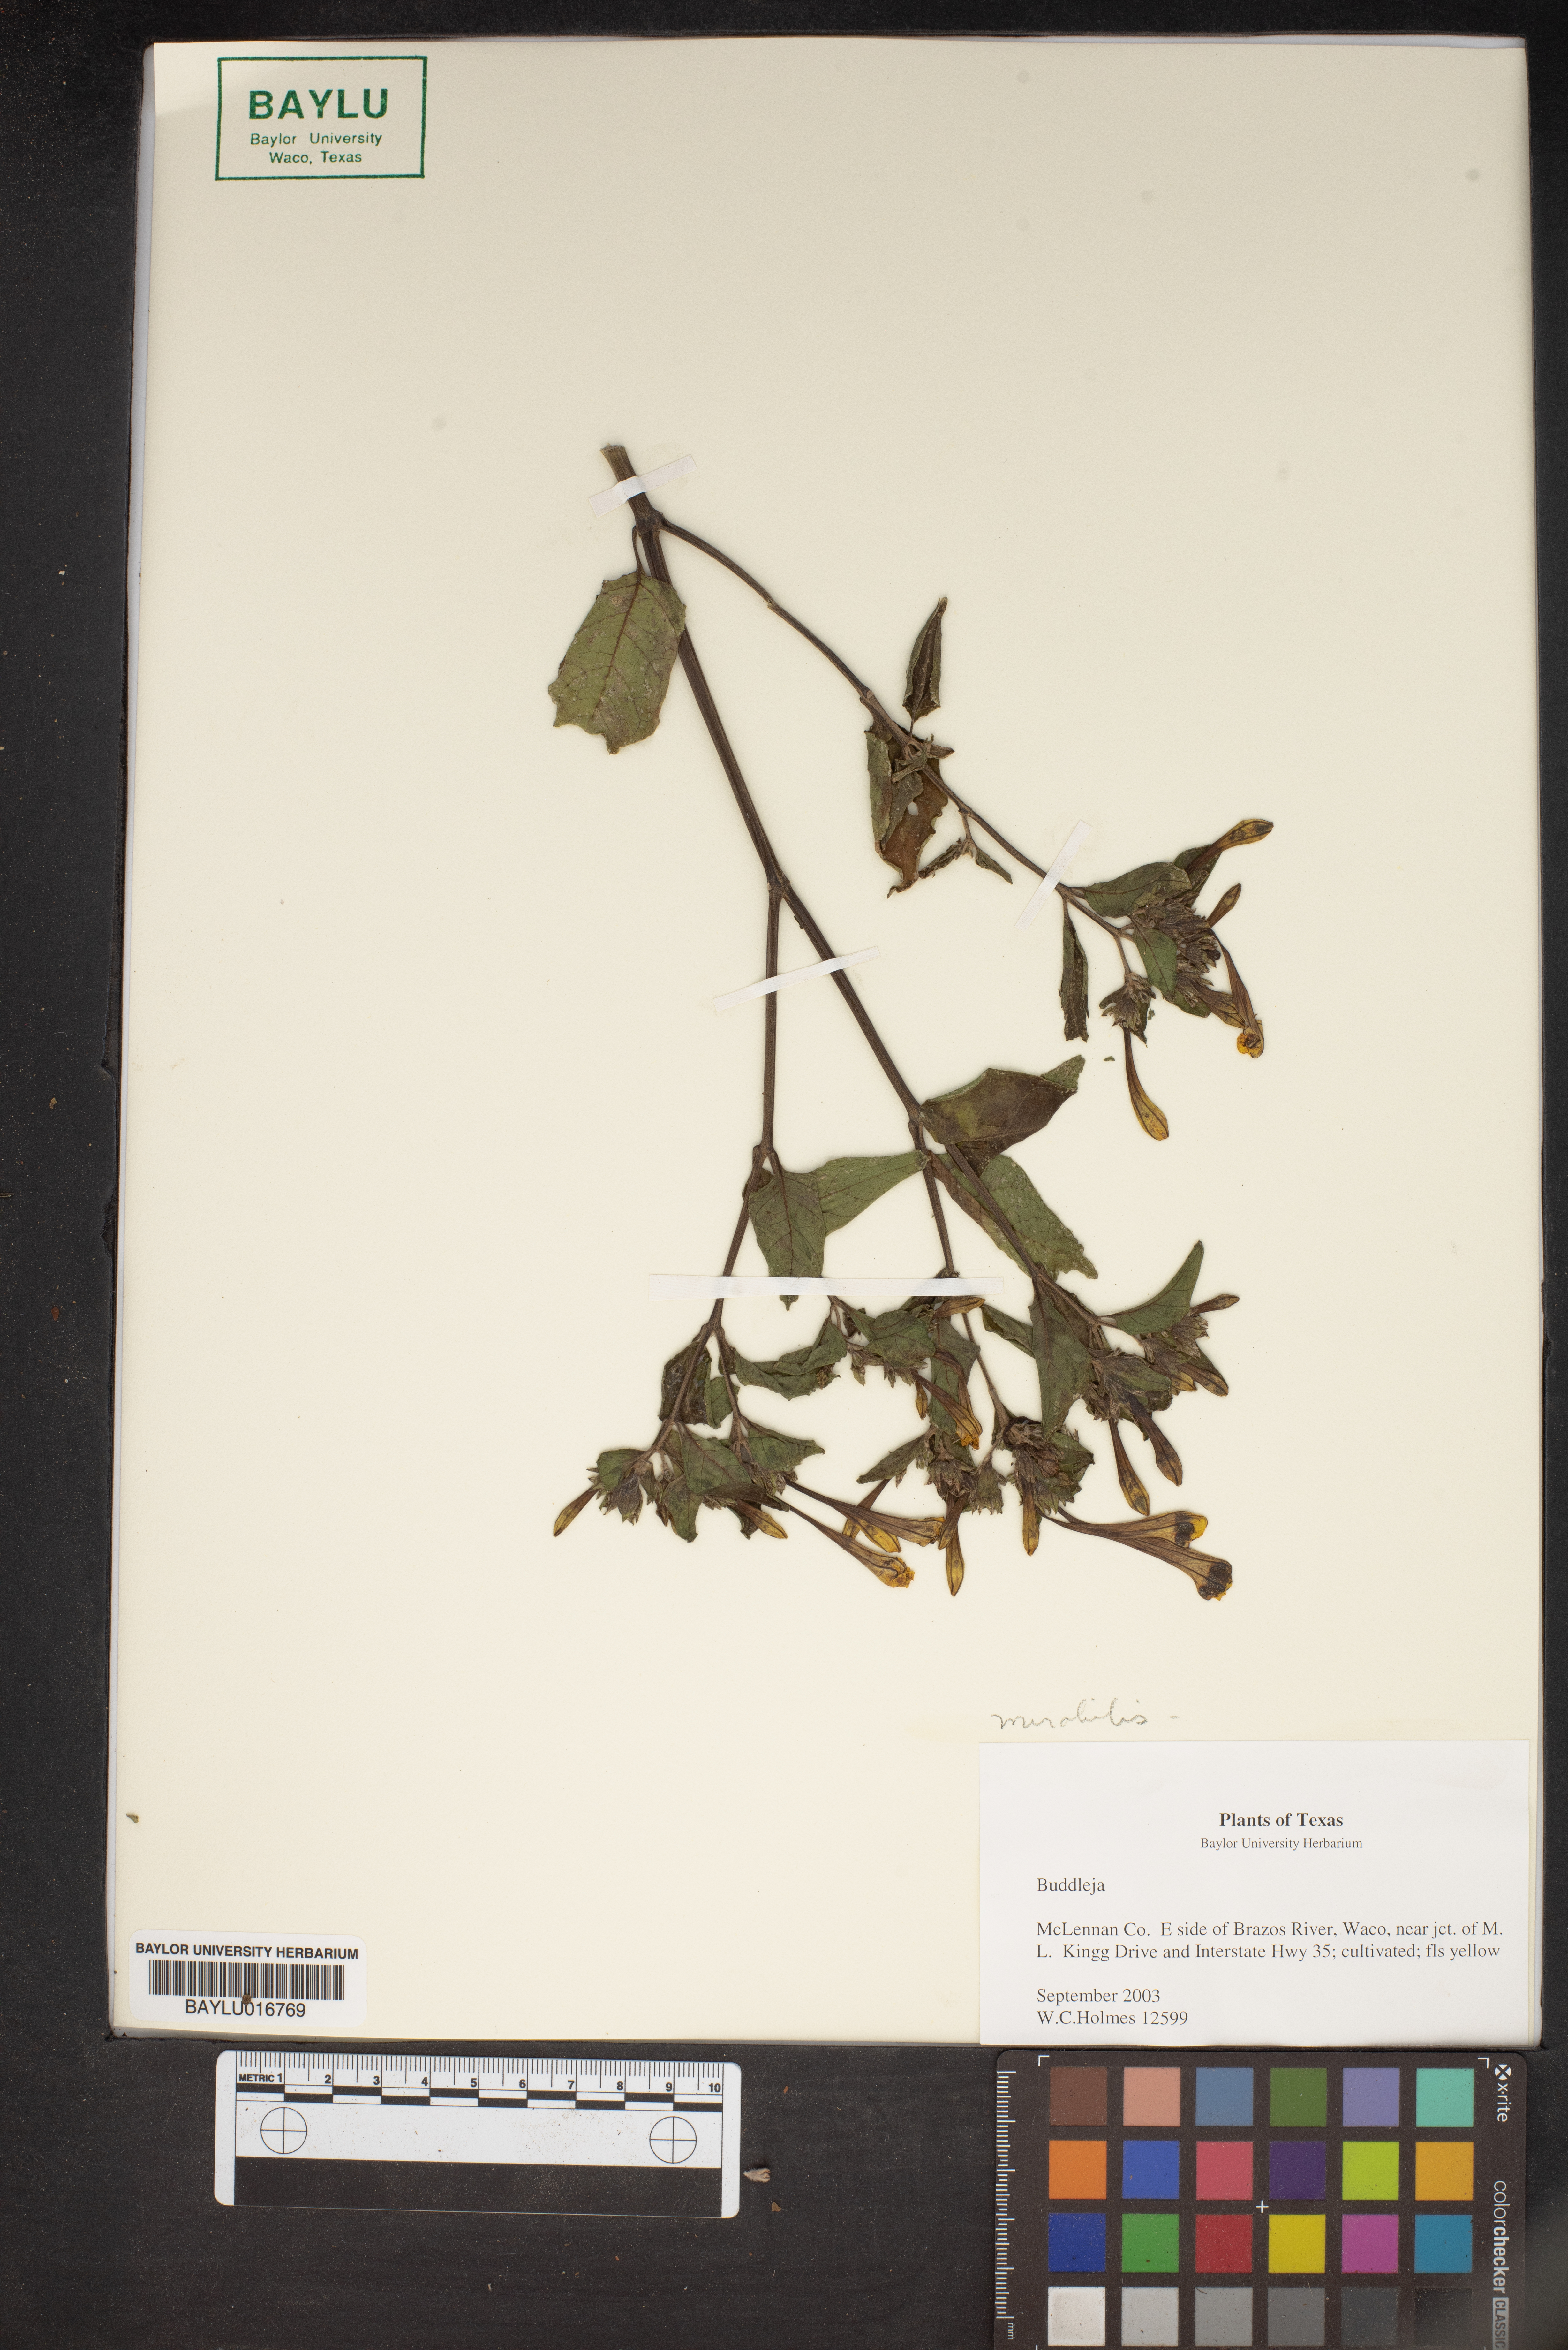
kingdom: Plantae
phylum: Tracheophyta
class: Magnoliopsida
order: Lamiales
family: Scrophulariaceae
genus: Buddleja
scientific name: Buddleja
